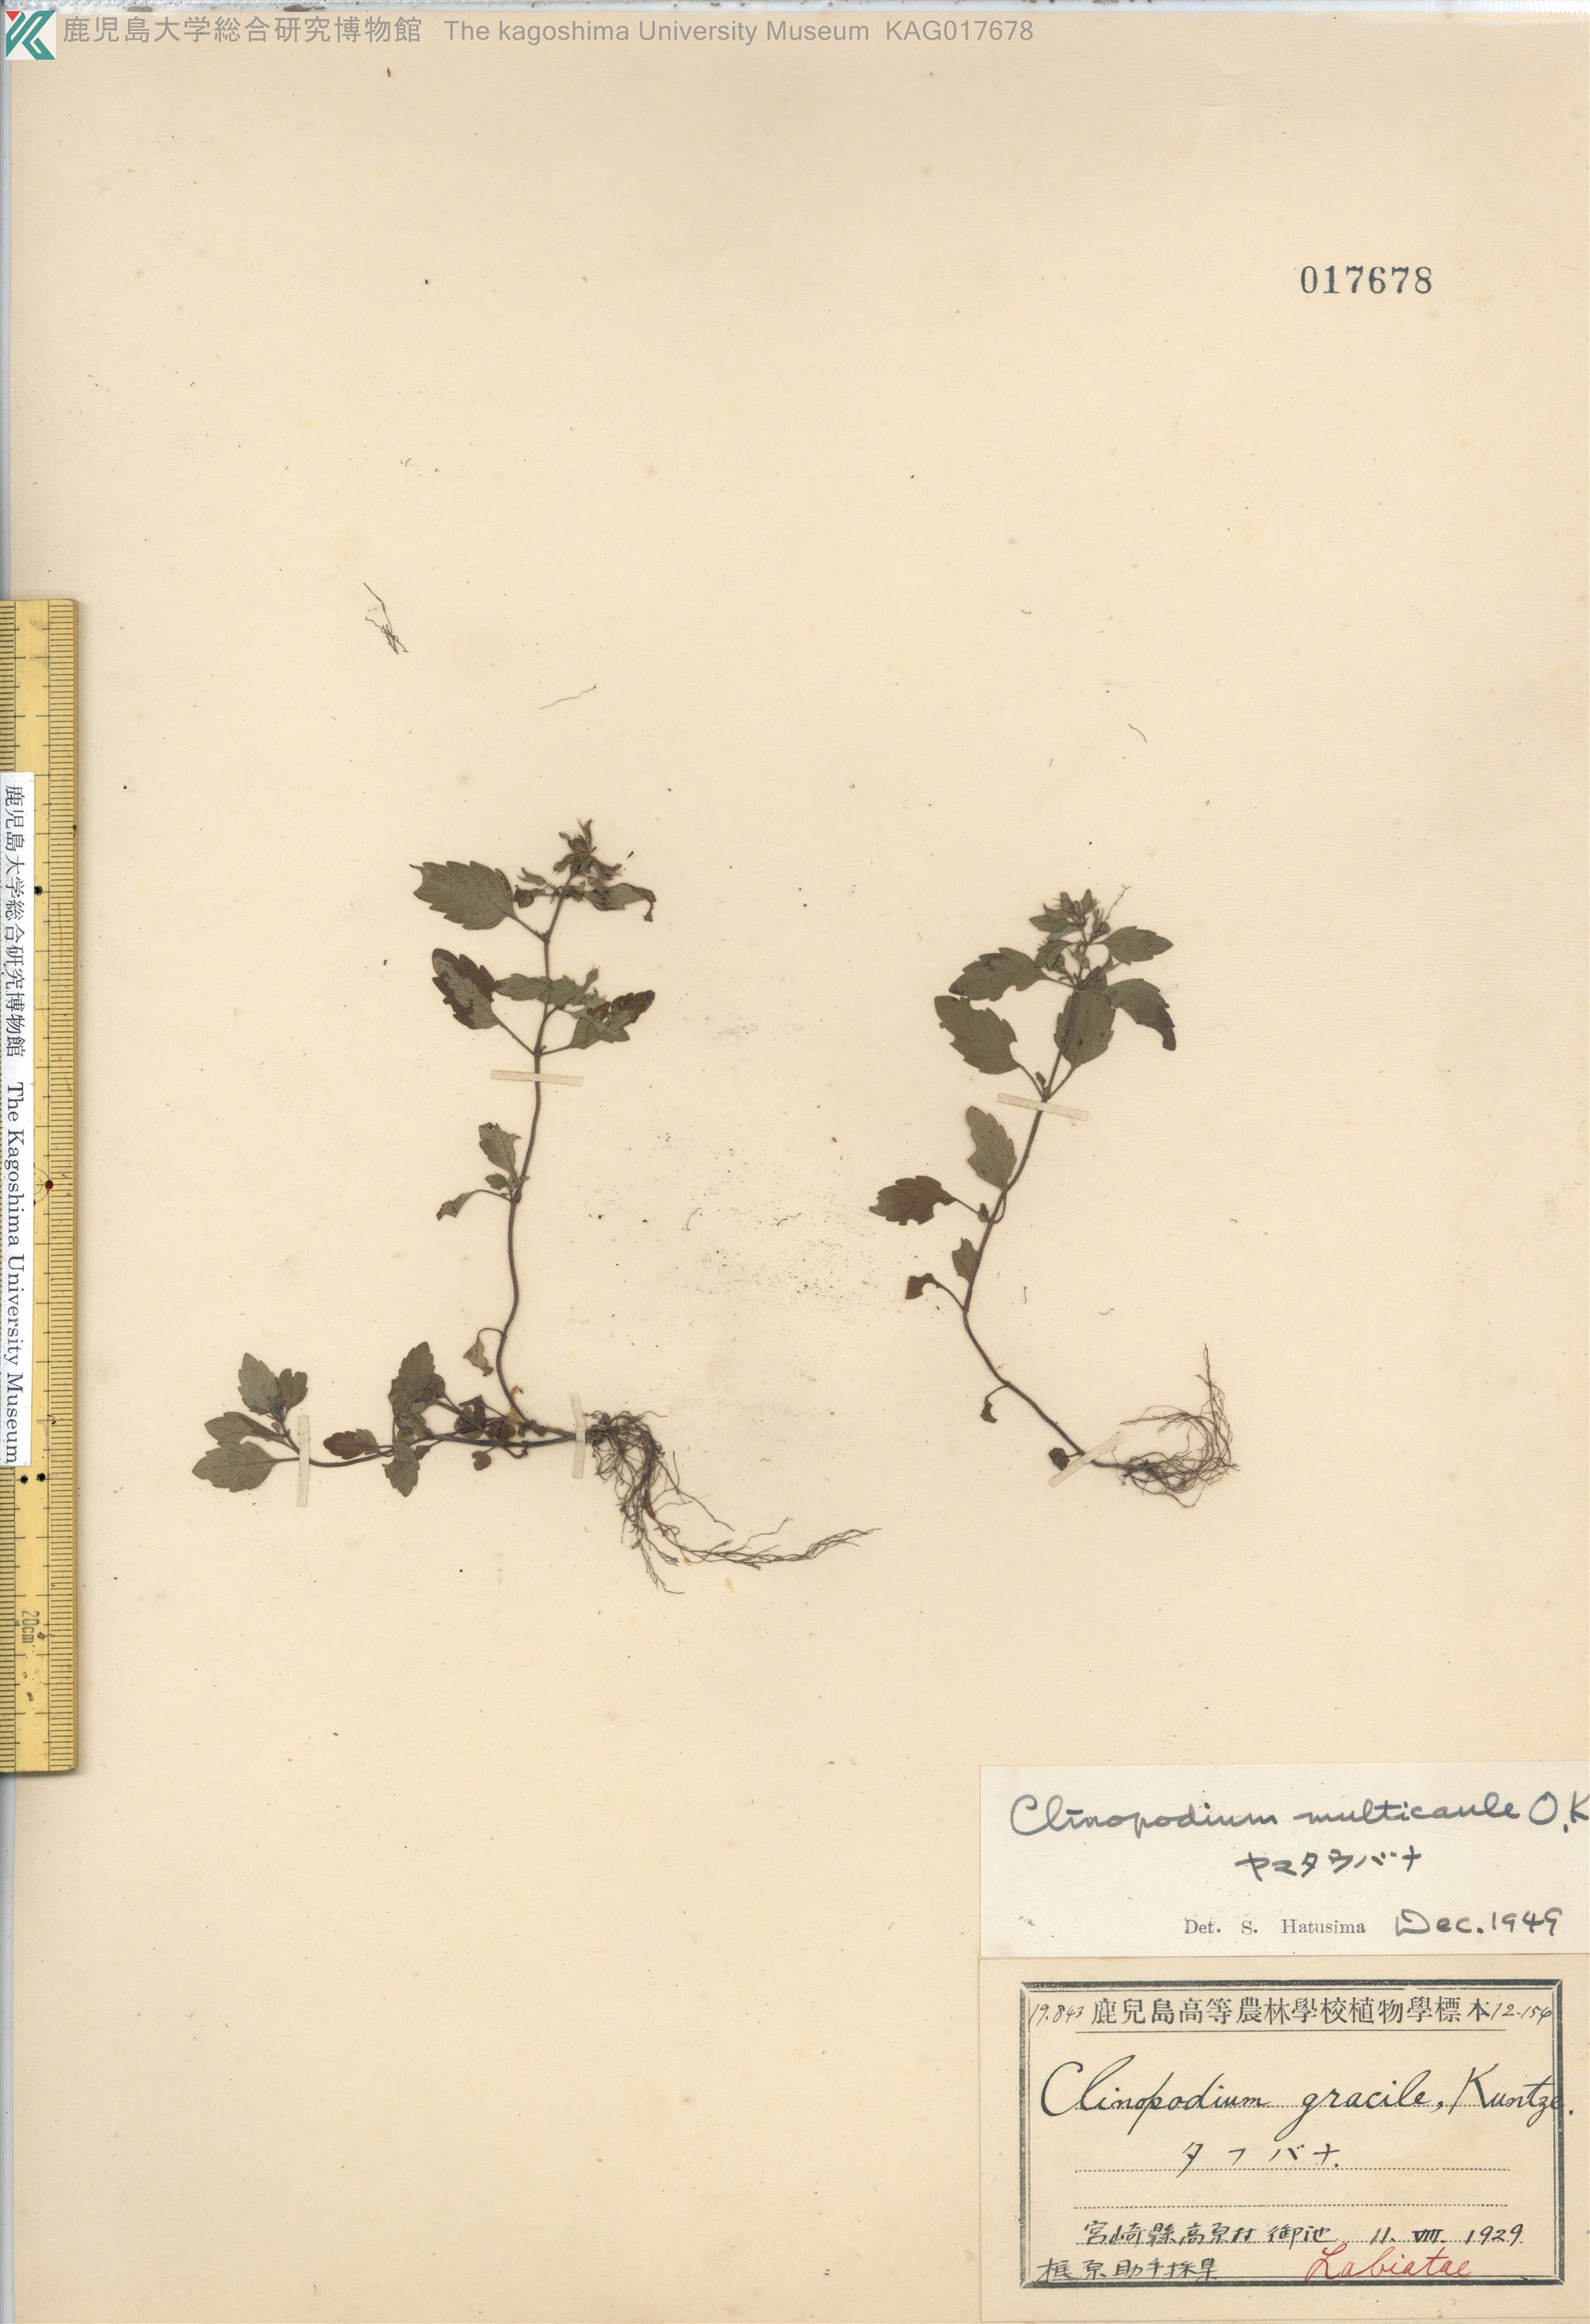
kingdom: Plantae
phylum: Tracheophyta
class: Magnoliopsida
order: Lamiales
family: Lamiaceae
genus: Clinopodium
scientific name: Clinopodium multicaule
